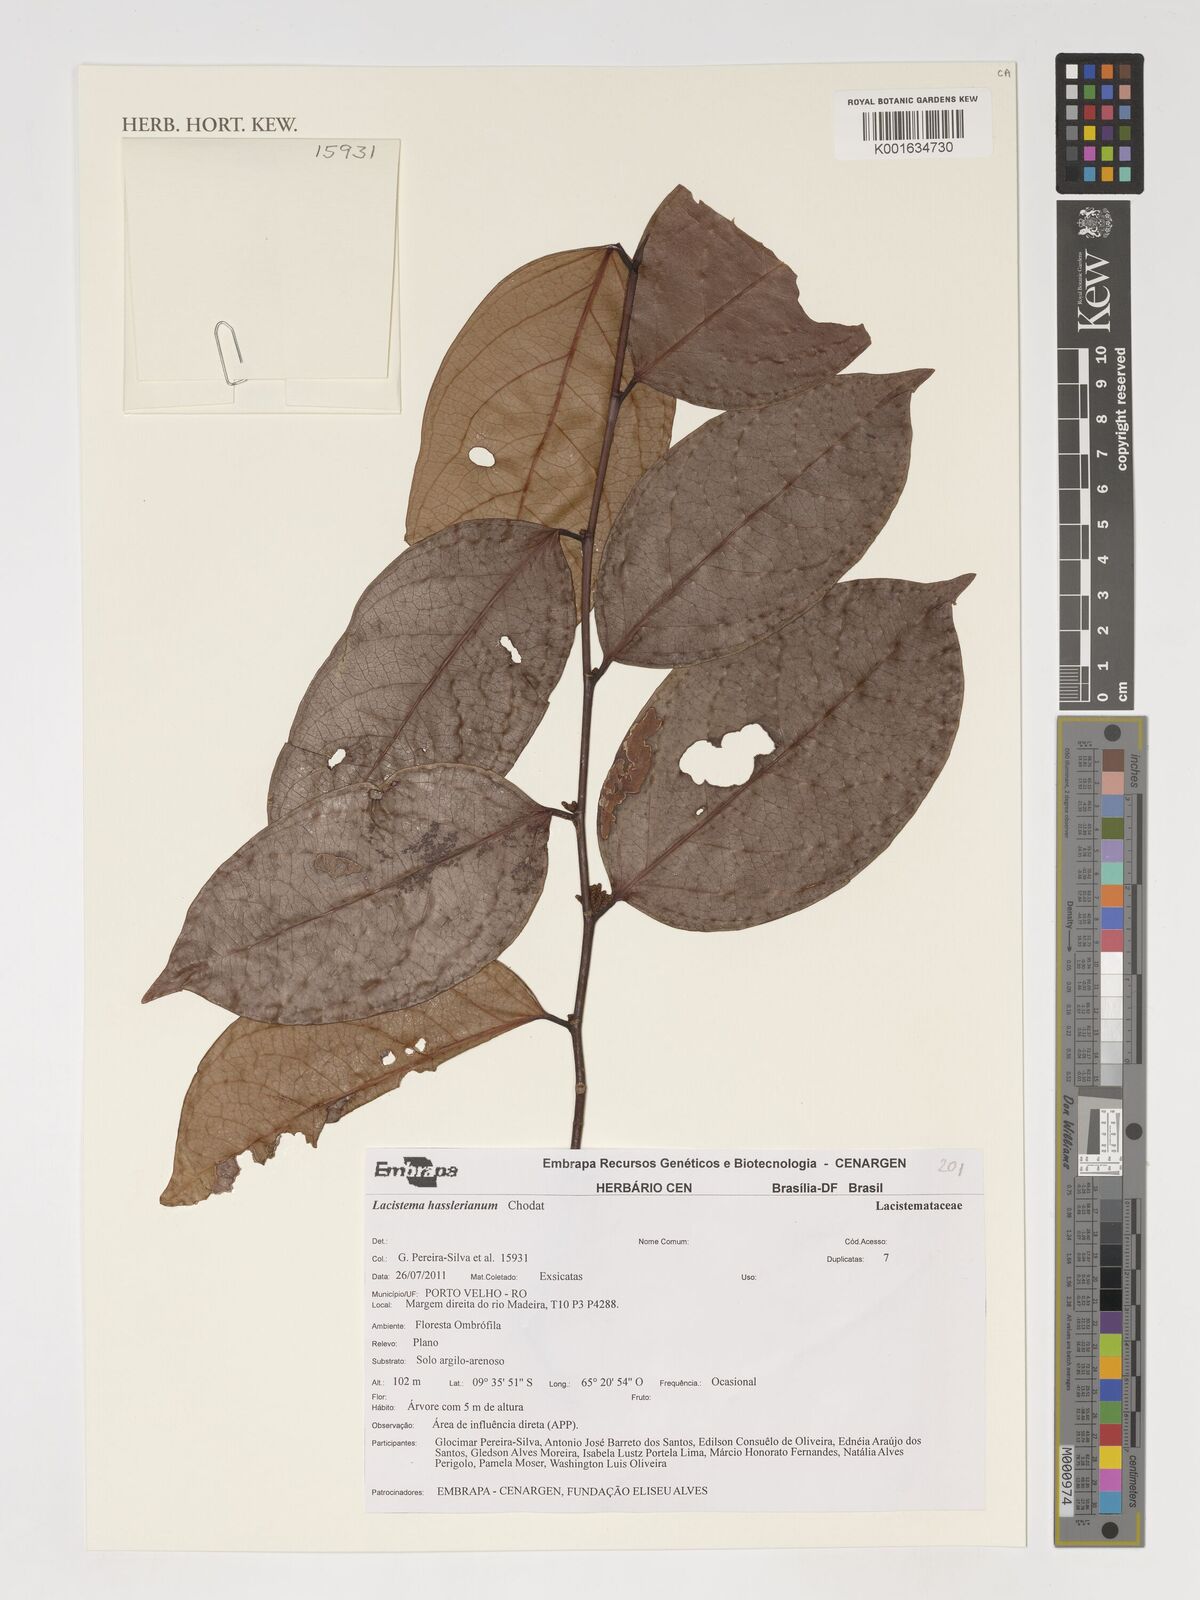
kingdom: Plantae
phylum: Tracheophyta
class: Magnoliopsida
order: Malpighiales
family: Lacistemataceae
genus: Lacistema
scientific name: Lacistema hasslerianum
